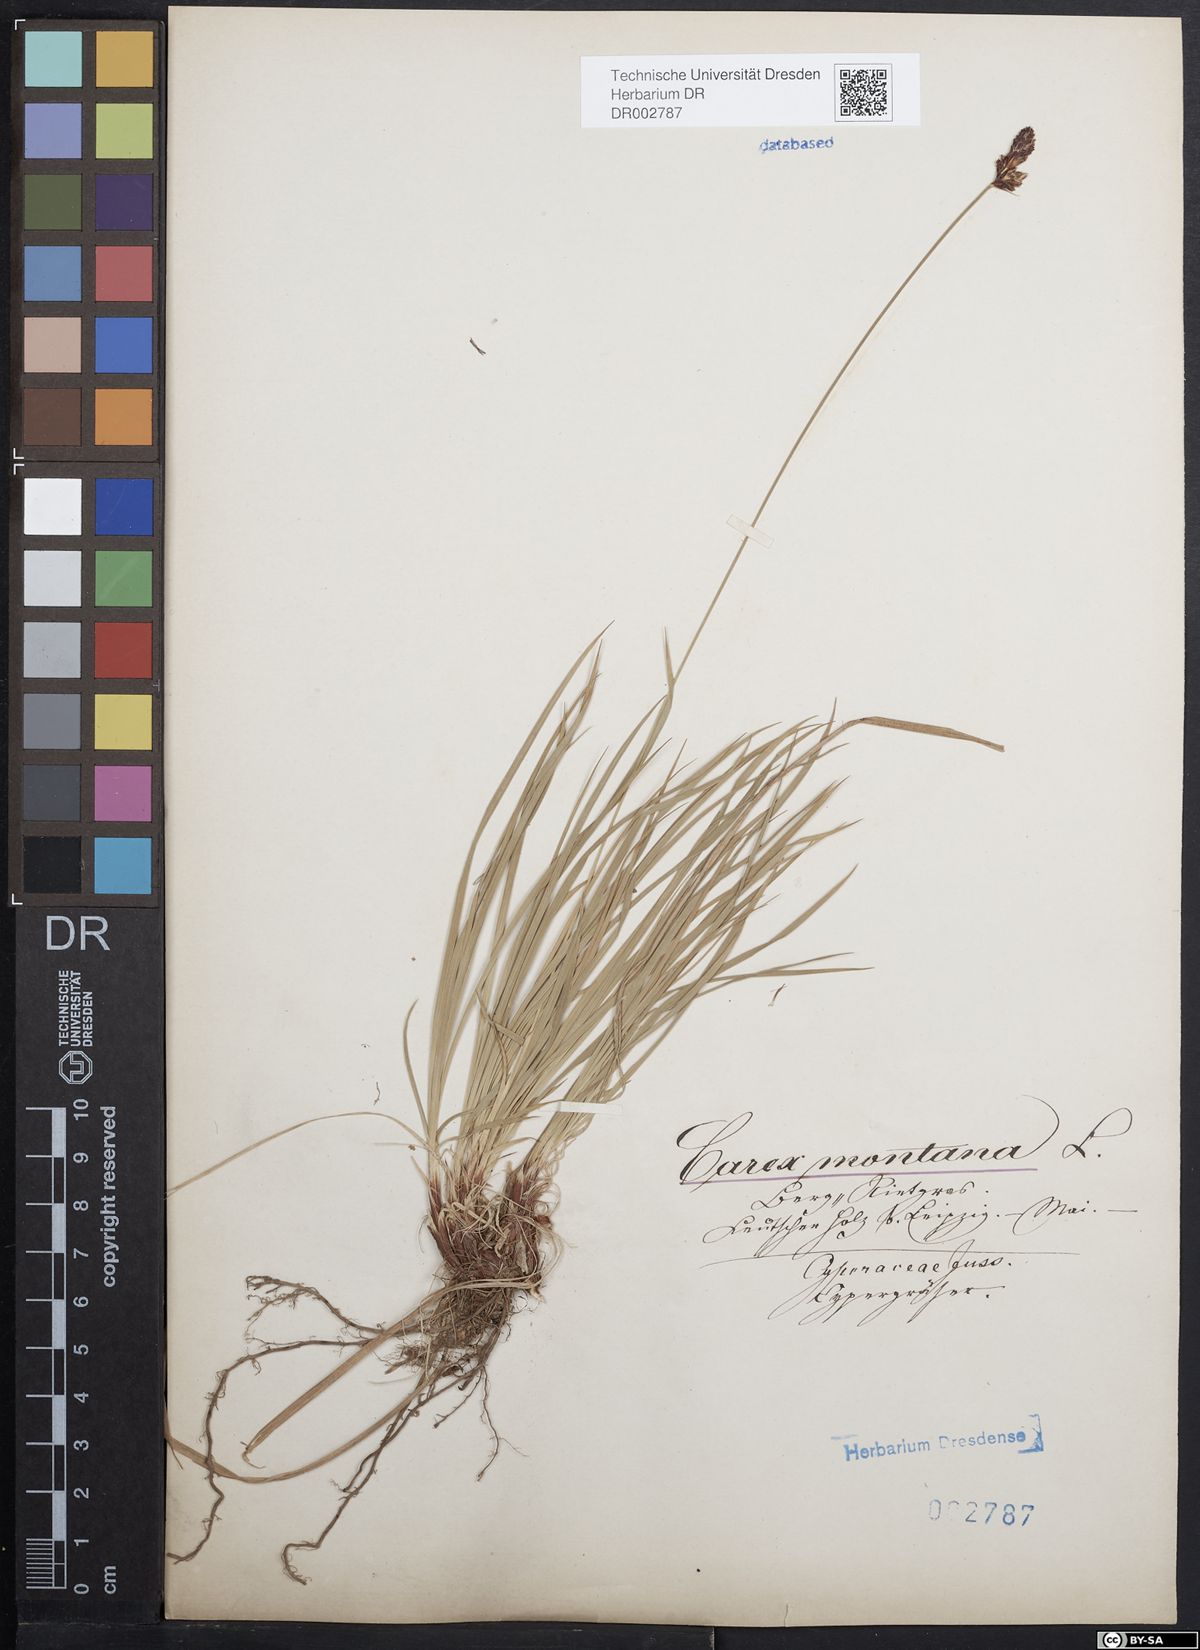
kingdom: Plantae
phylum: Tracheophyta
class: Liliopsida
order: Poales
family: Cyperaceae
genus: Carex
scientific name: Carex montana
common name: Soft-leaved sedge
